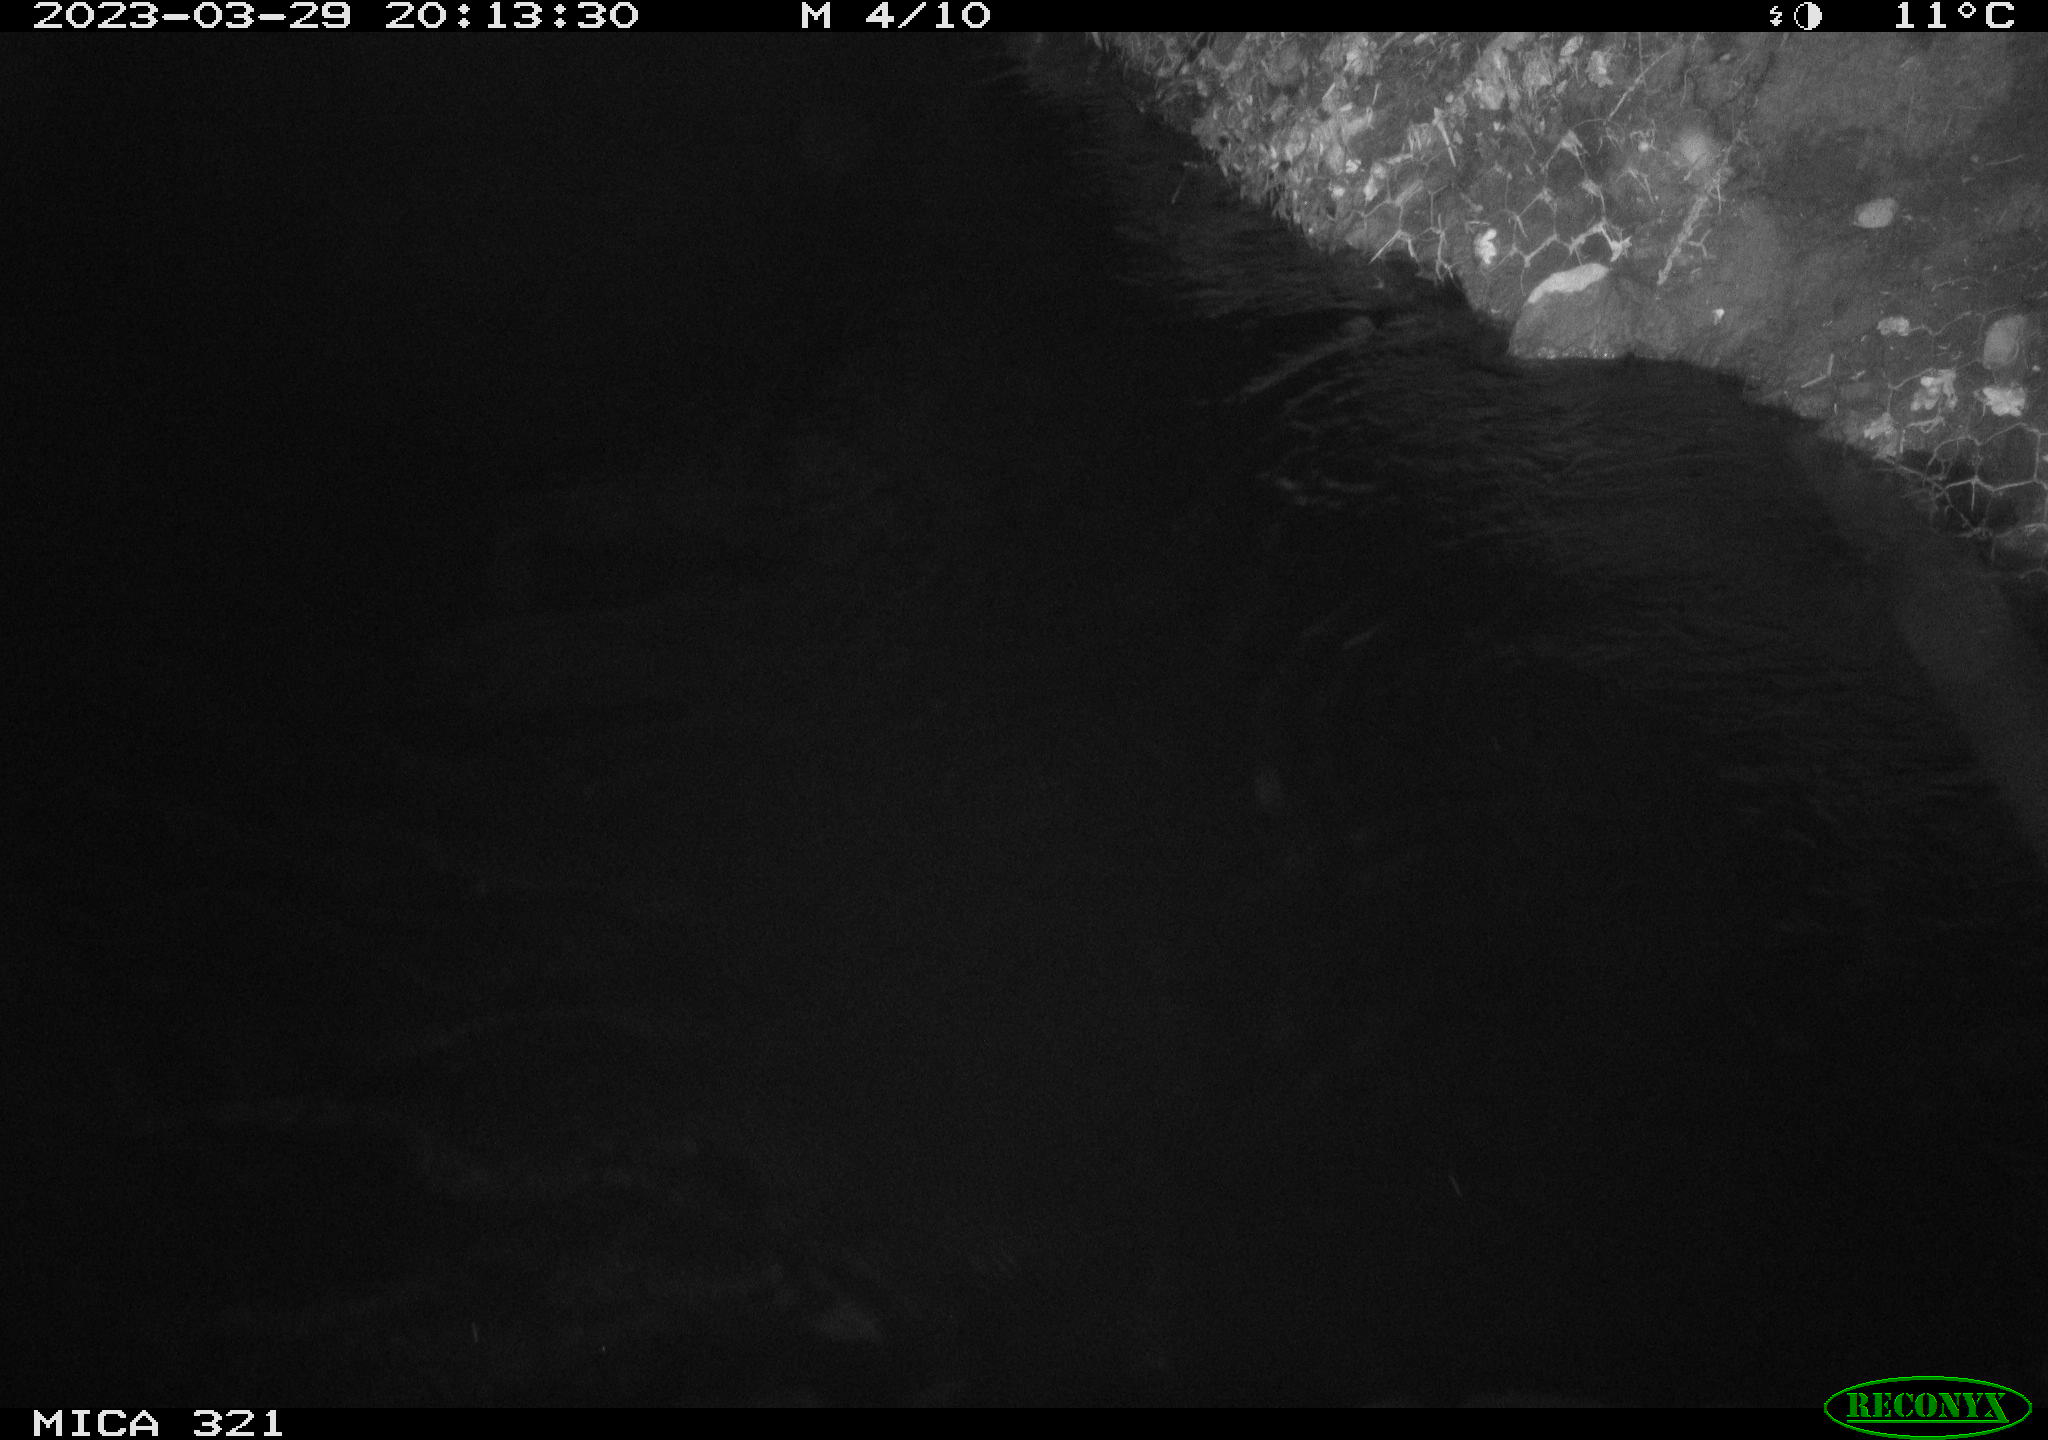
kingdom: Animalia
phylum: Chordata
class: Aves
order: Anseriformes
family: Anatidae
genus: Anas
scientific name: Anas
